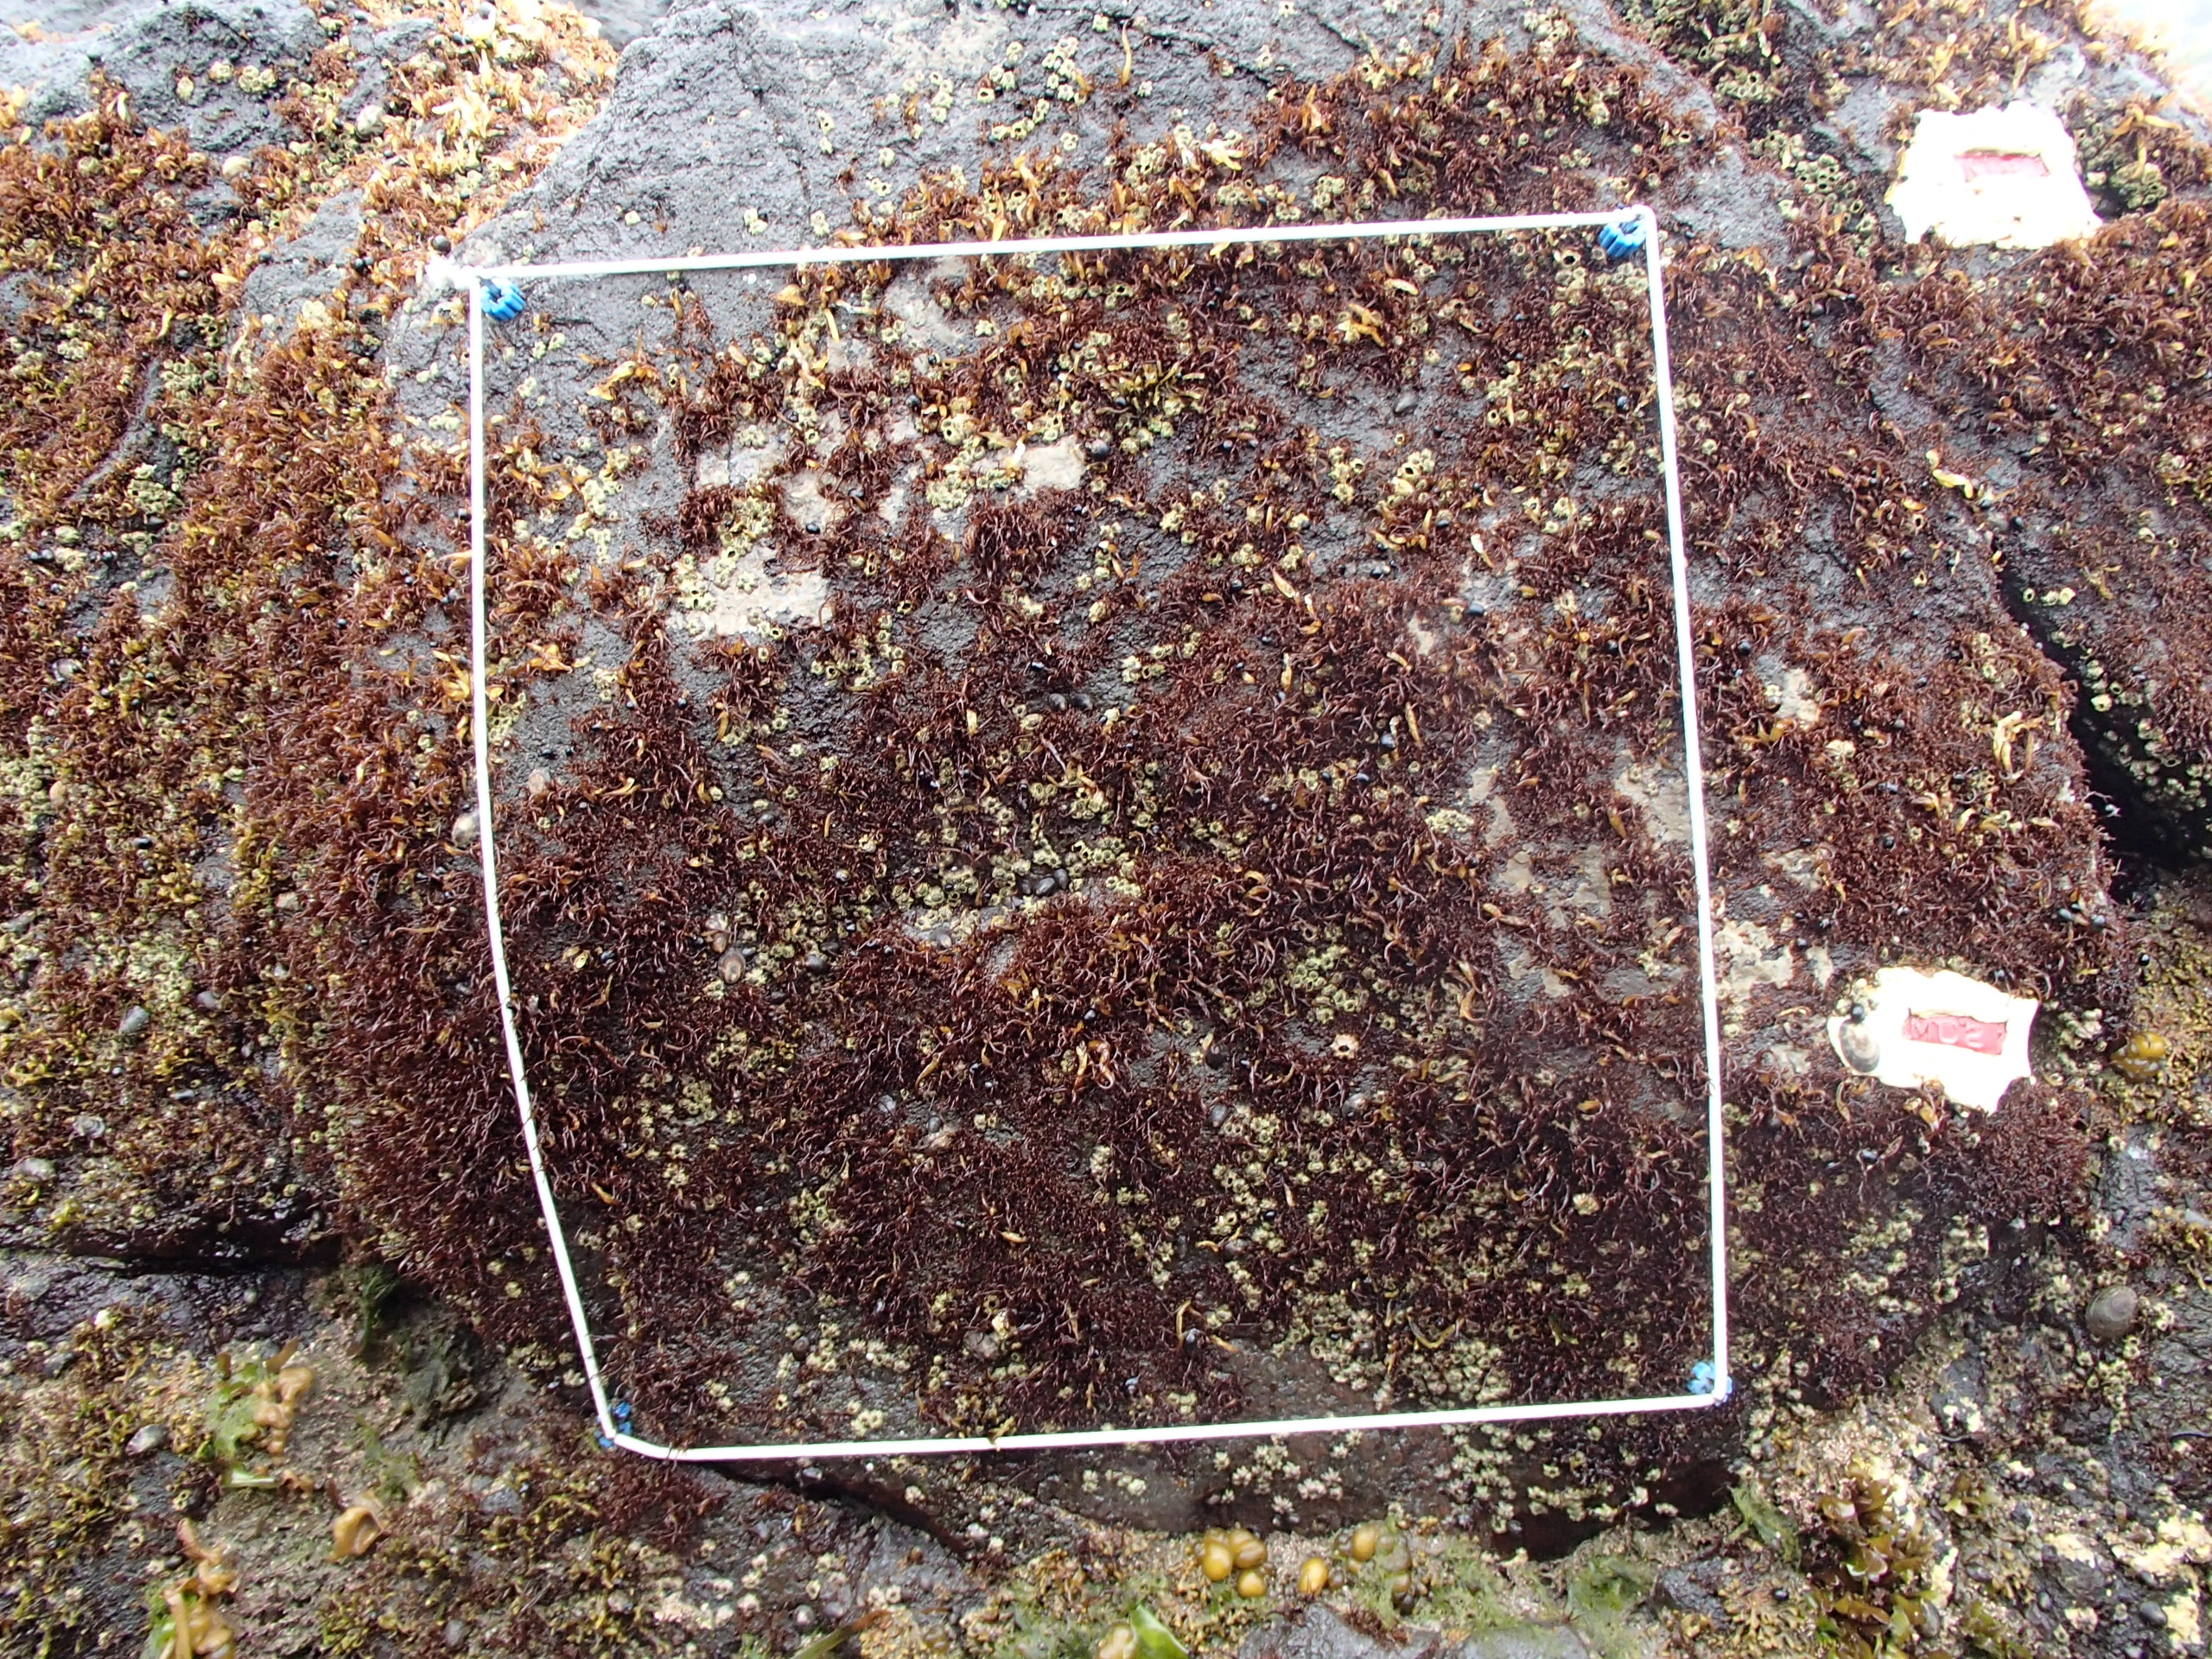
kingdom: Animalia
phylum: Arthropoda
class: Maxillopoda
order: Sessilia
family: Chthamalidae
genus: Chthamalus
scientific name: Chthamalus dalli
